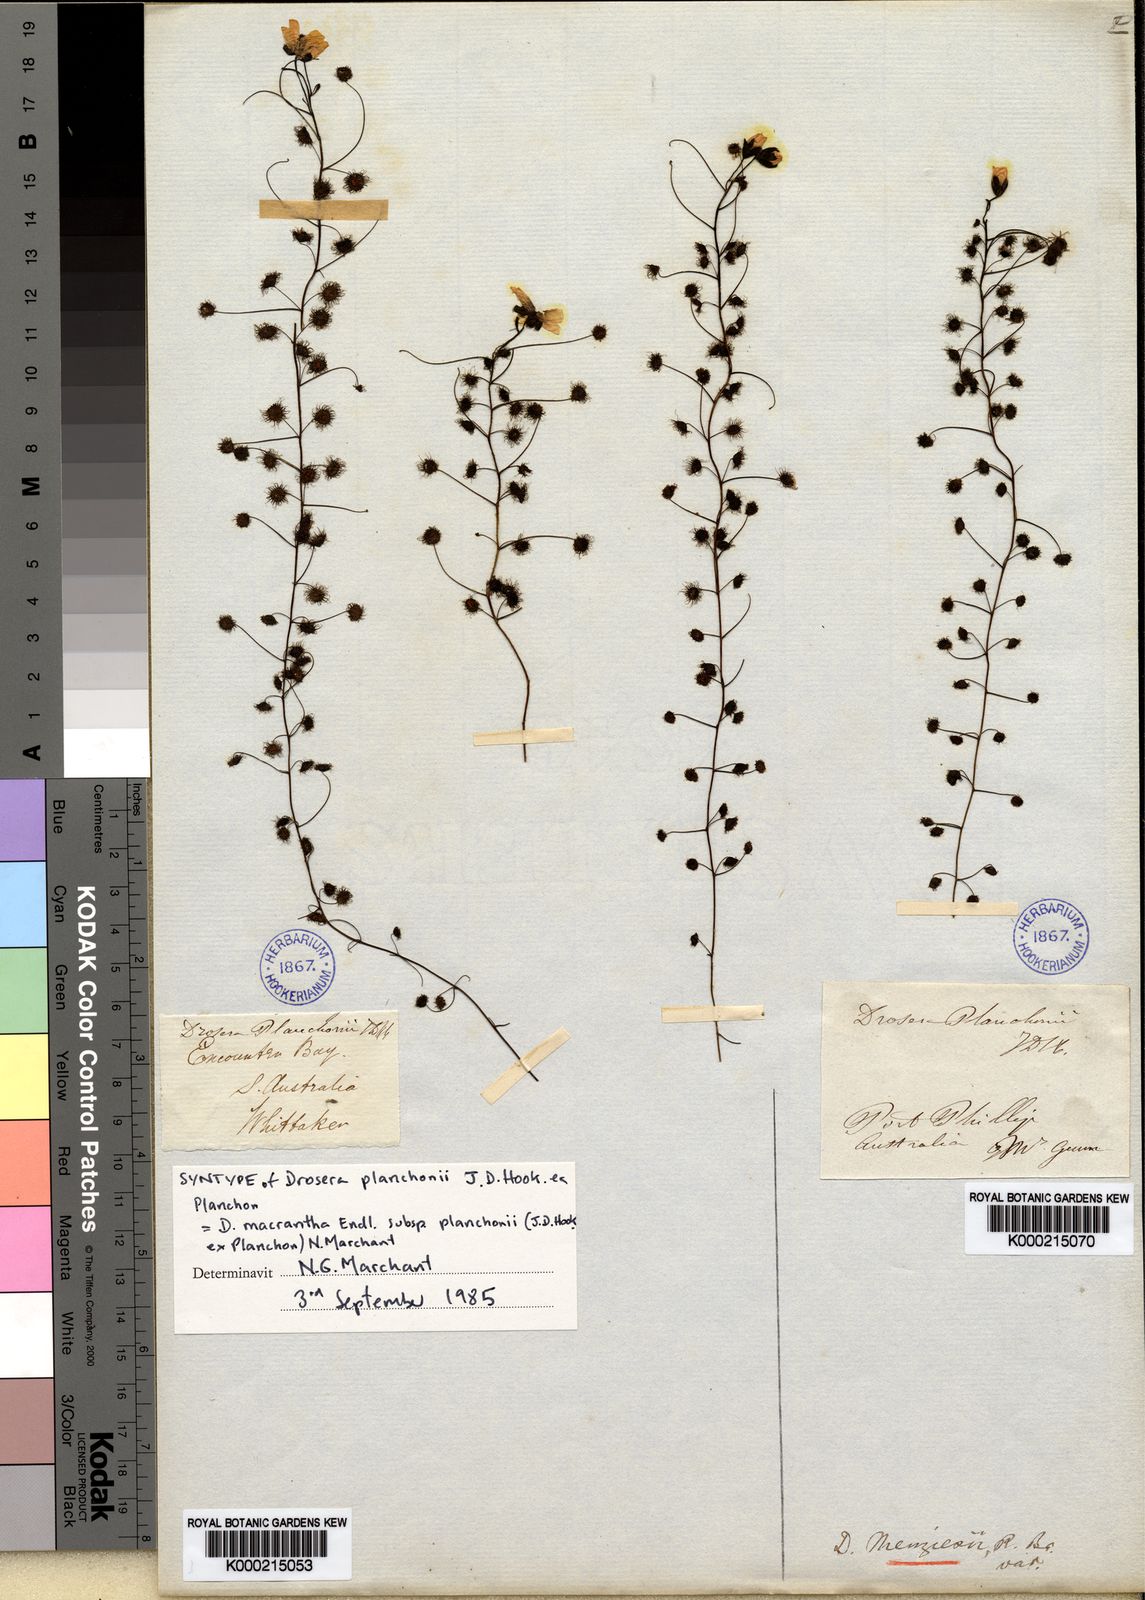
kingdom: Plantae
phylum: Tracheophyta
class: Magnoliopsida
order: Caryophyllales
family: Droseraceae
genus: Drosera
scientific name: Drosera macrantha
